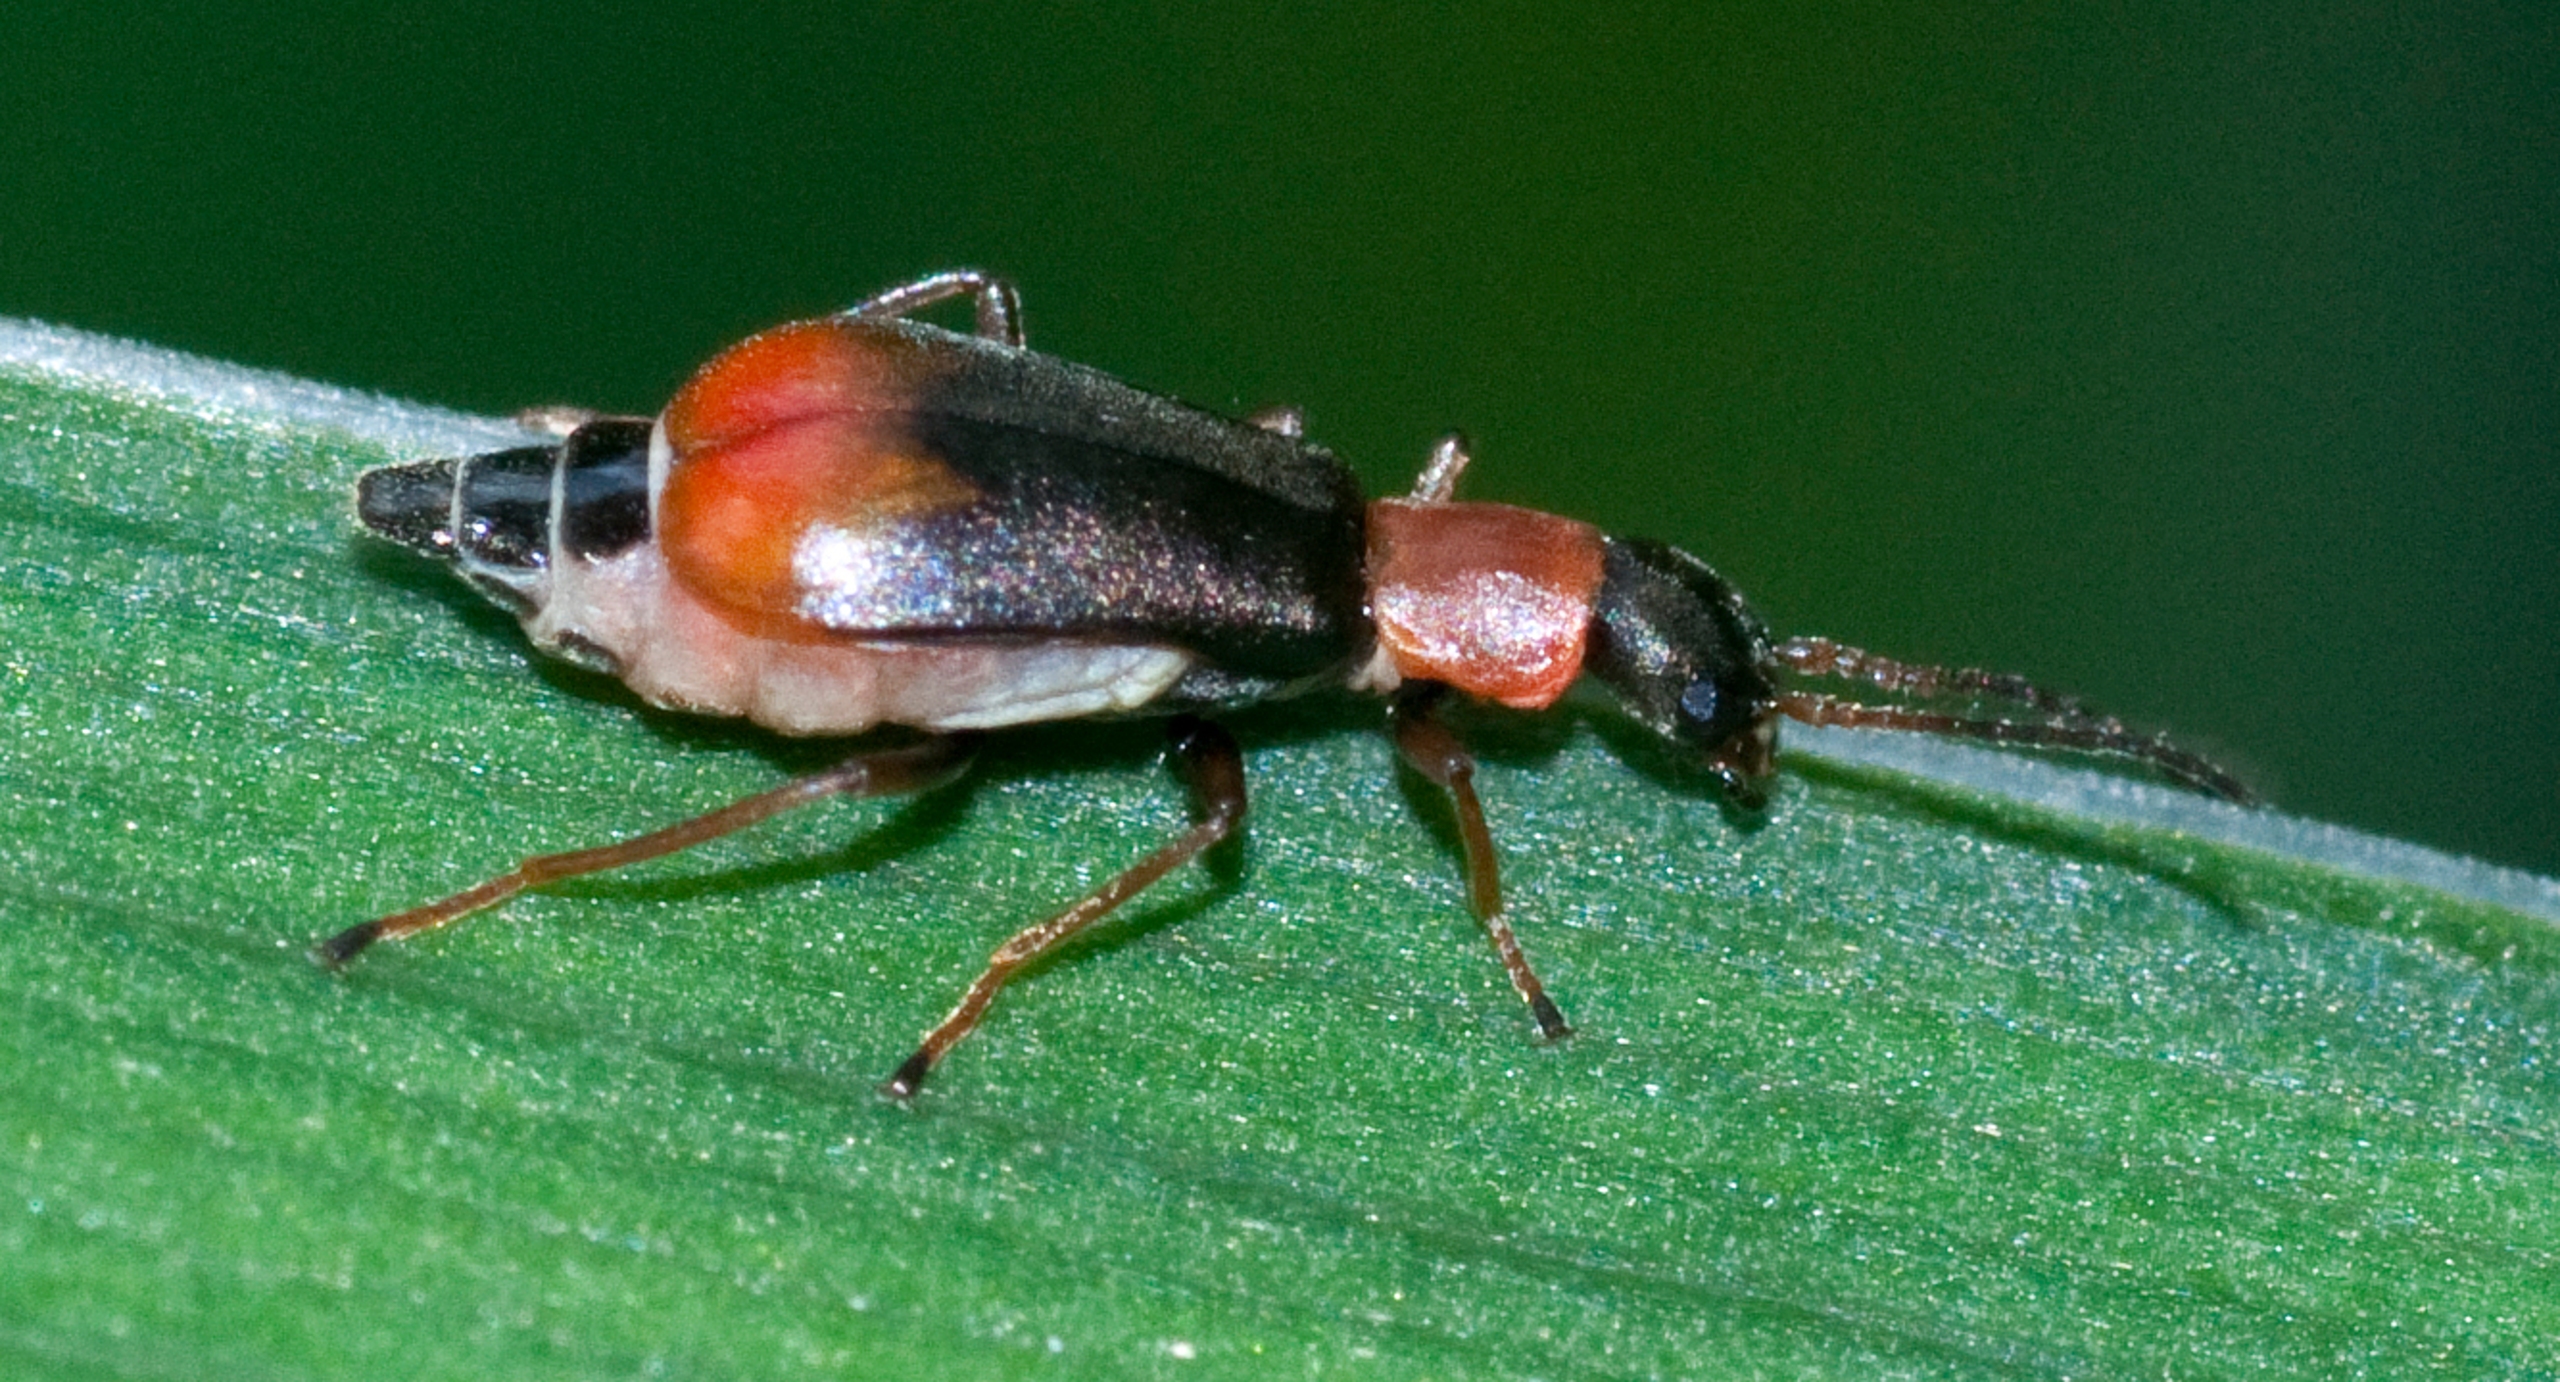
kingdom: Animalia
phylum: Arthropoda
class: Insecta
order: Coleoptera
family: Malachiidae
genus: Cerapheles
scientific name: Cerapheles terminatus
